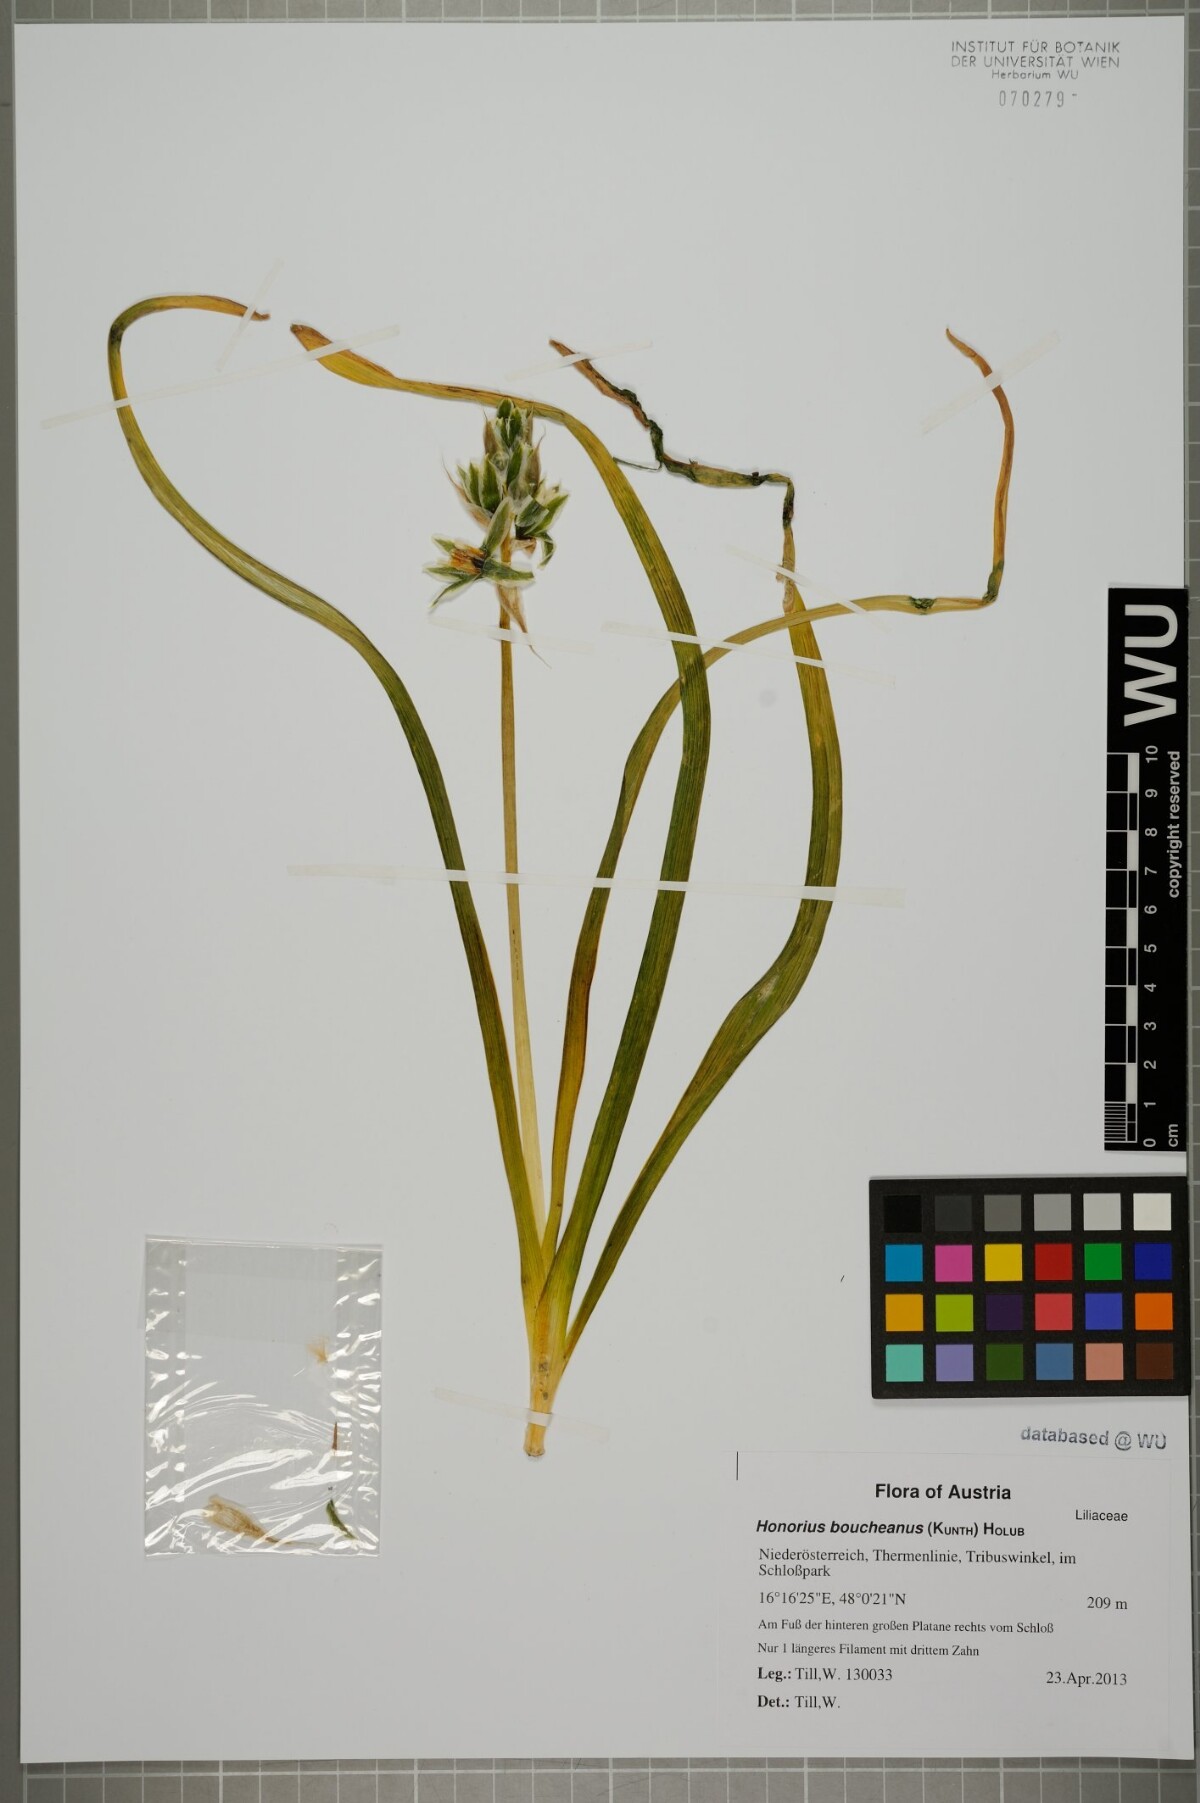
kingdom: Plantae
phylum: Tracheophyta
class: Liliopsida
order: Asparagales
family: Asparagaceae
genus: Ornithogalum
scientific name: Ornithogalum boucheanum
